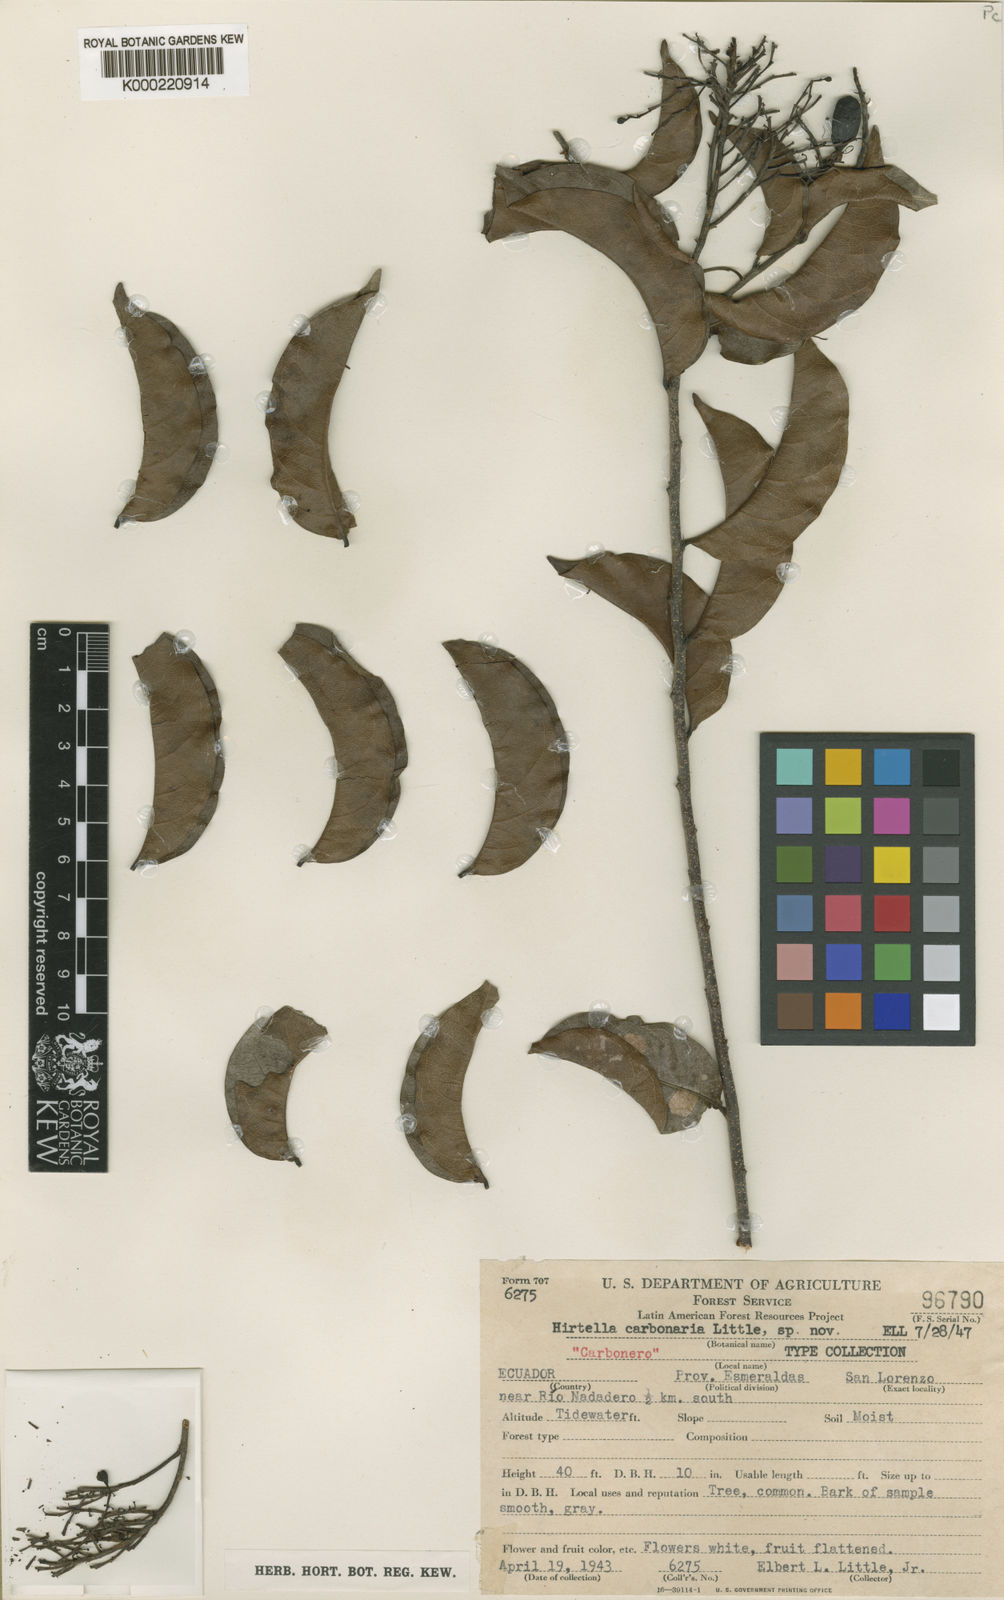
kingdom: Plantae
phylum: Tracheophyta
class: Magnoliopsida
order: Malpighiales
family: Chrysobalanaceae
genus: Hirtella
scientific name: Hirtella carbonaria
